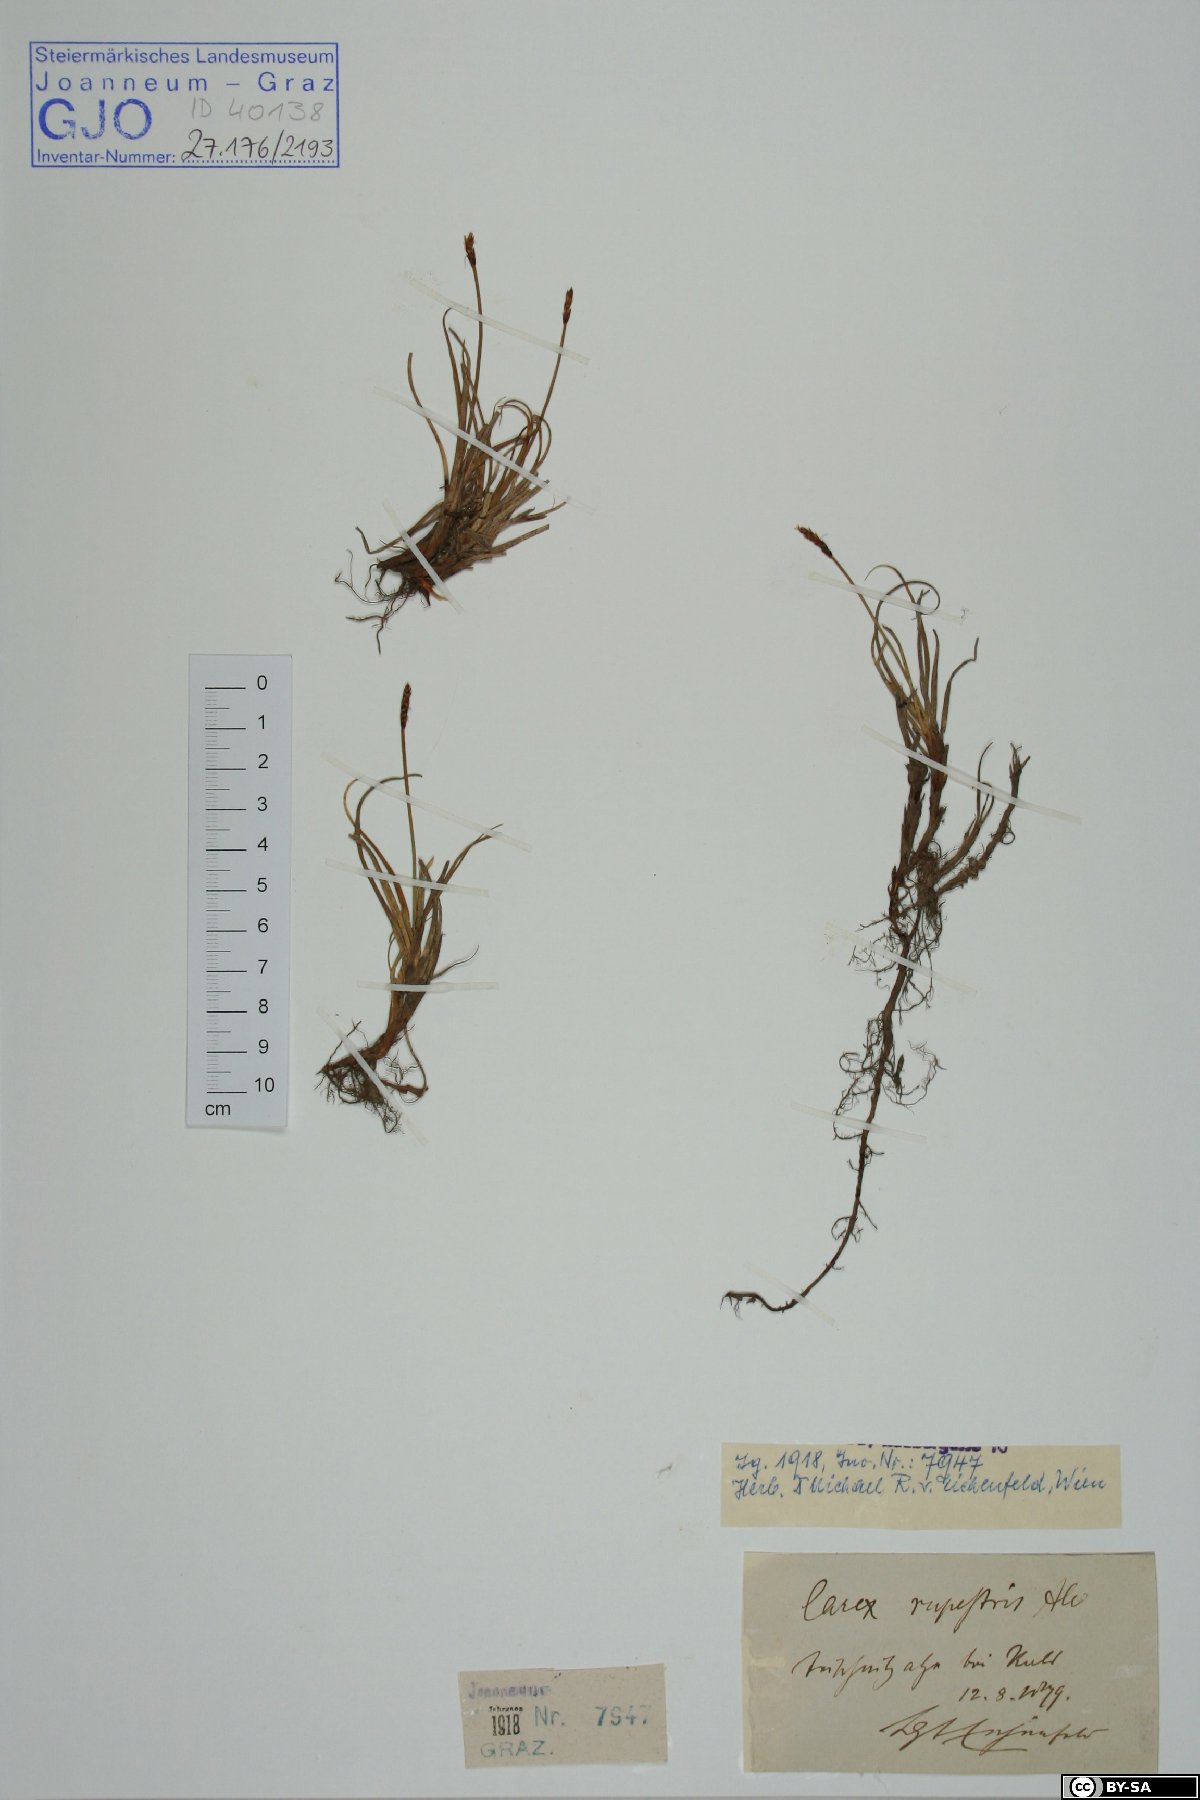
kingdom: Plantae
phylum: Tracheophyta
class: Liliopsida
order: Poales
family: Cyperaceae
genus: Carex
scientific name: Carex rupestris
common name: Rock sedge
